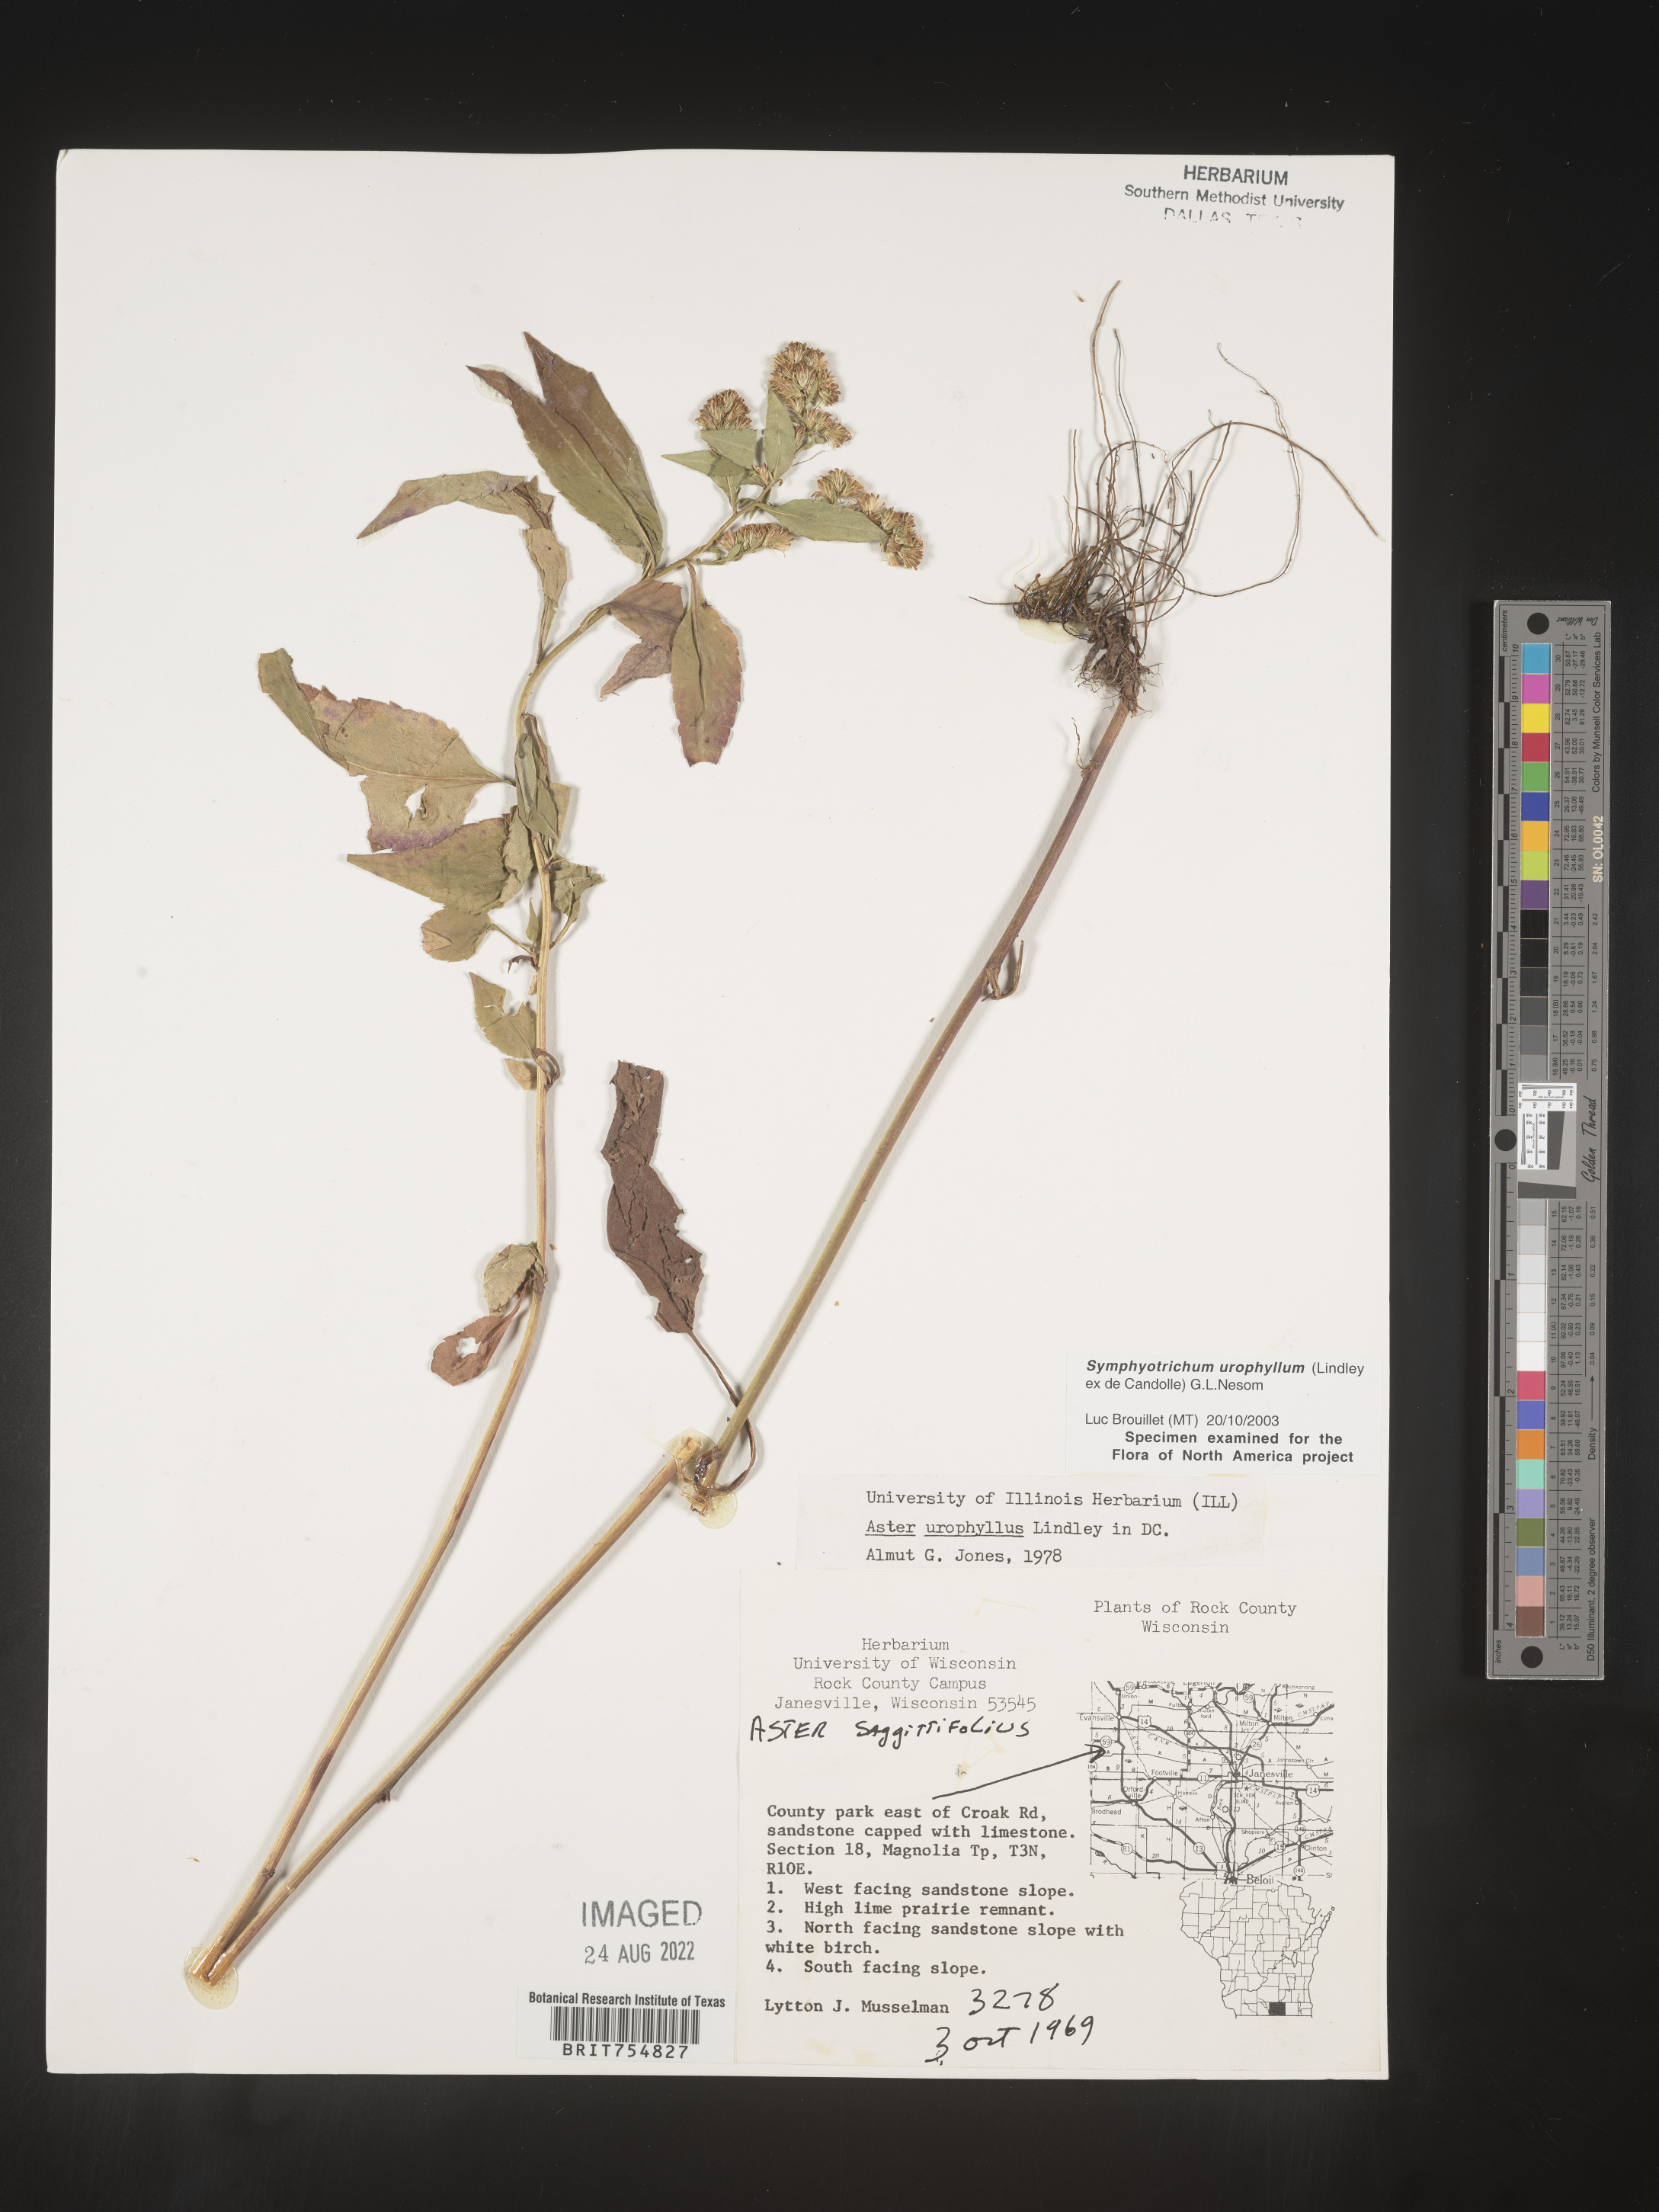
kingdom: Plantae
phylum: Tracheophyta
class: Magnoliopsida
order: Asterales
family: Asteraceae
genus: Symphyotrichum
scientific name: Symphyotrichum urophyllum
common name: Arrow-leaved aster
